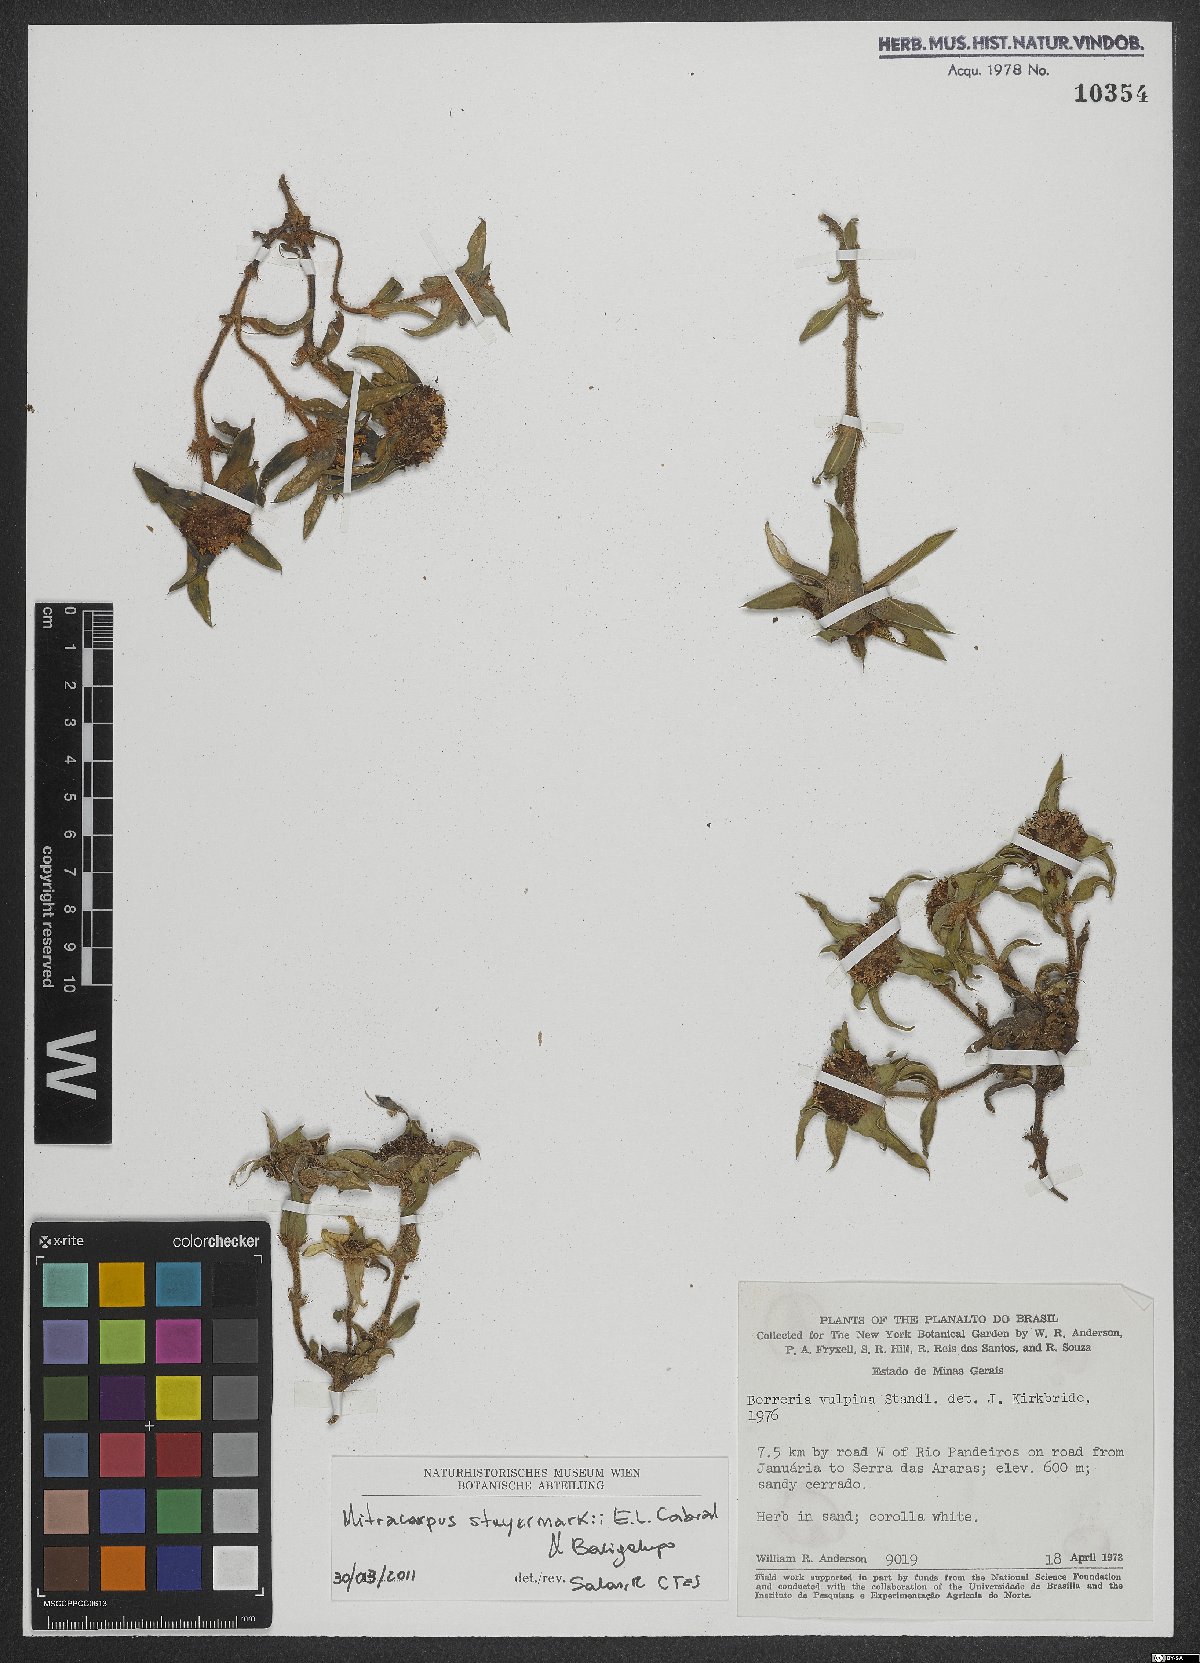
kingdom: Plantae
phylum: Tracheophyta
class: Magnoliopsida
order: Gentianales
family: Rubiaceae
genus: Mitracarpus
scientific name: Mitracarpus steyermarkii
